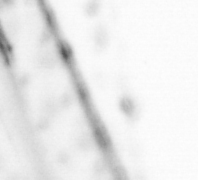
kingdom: Animalia
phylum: Chaetognatha
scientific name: Chaetognatha
